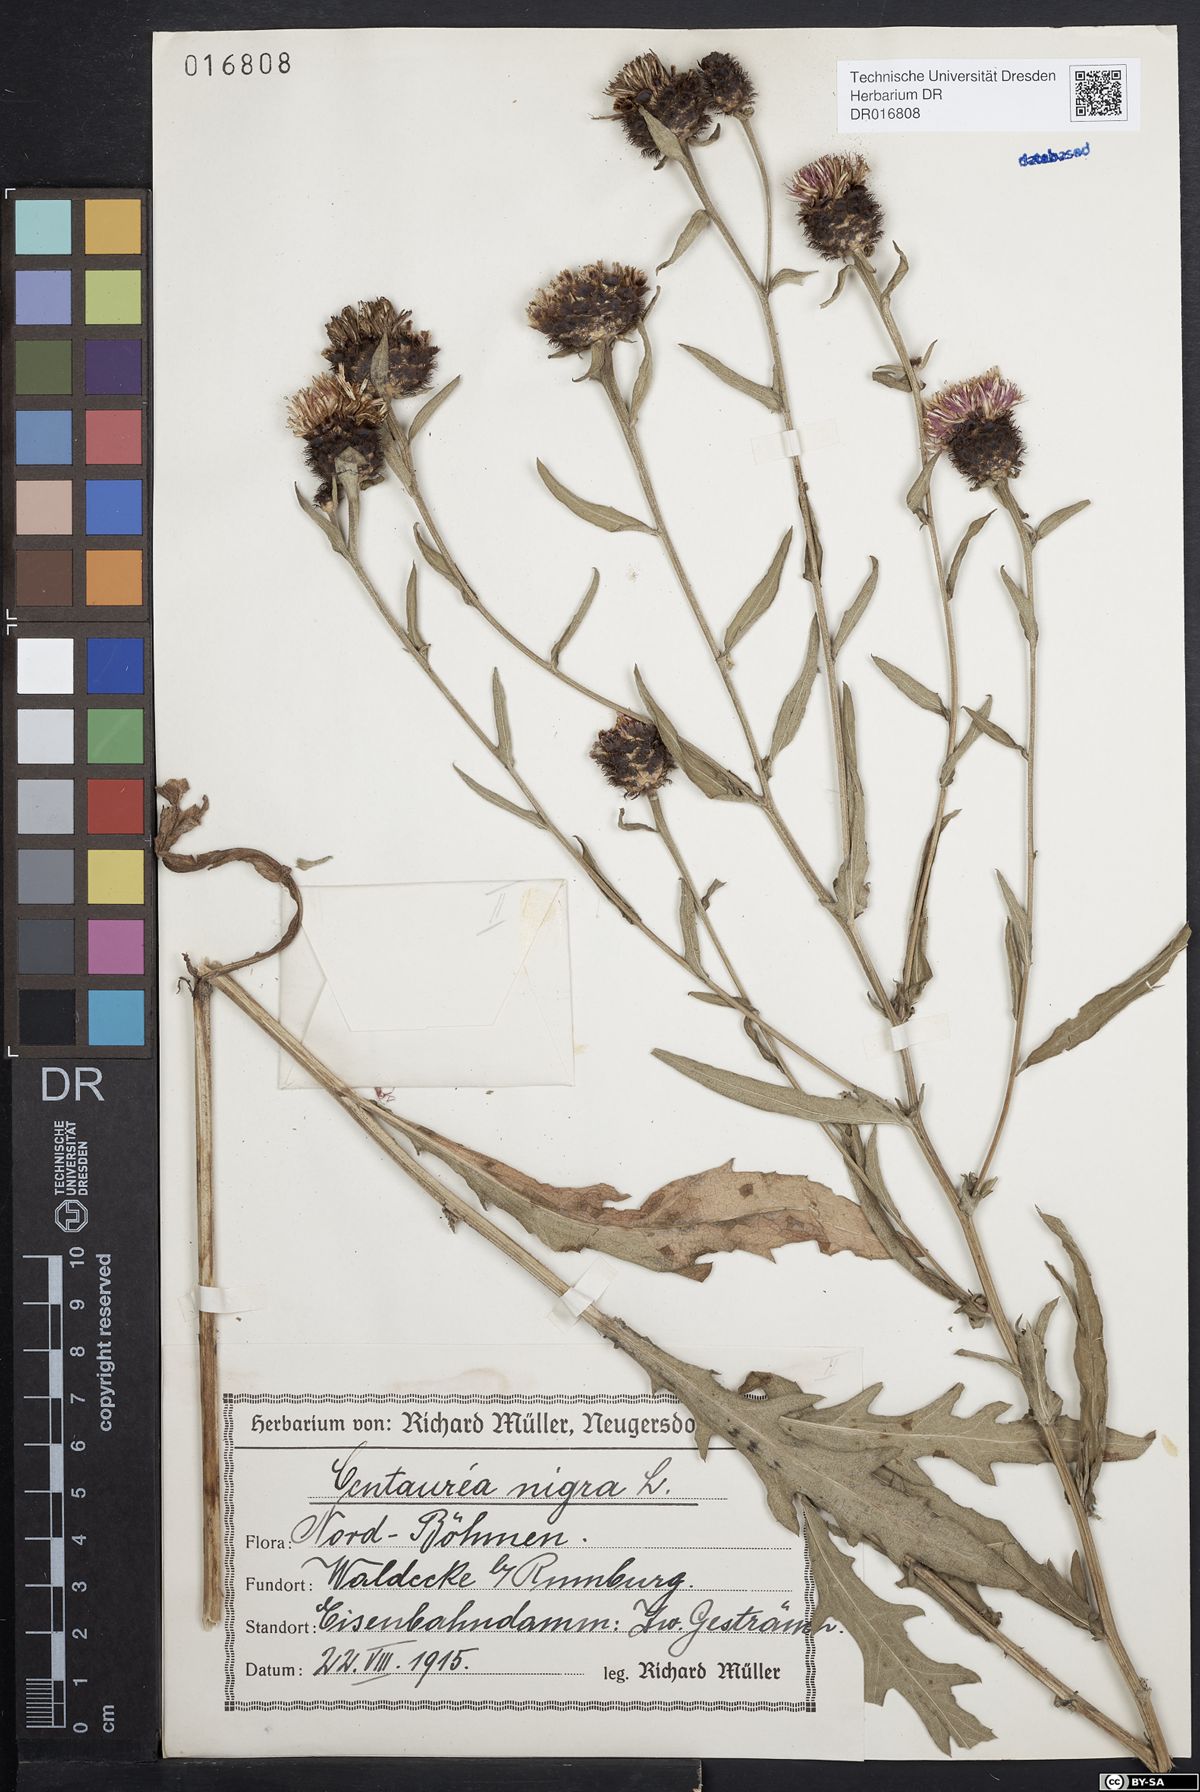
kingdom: Plantae
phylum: Tracheophyta
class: Magnoliopsida
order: Asterales
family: Asteraceae
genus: Centaurea
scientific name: Centaurea nigra
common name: Lesser knapweed
